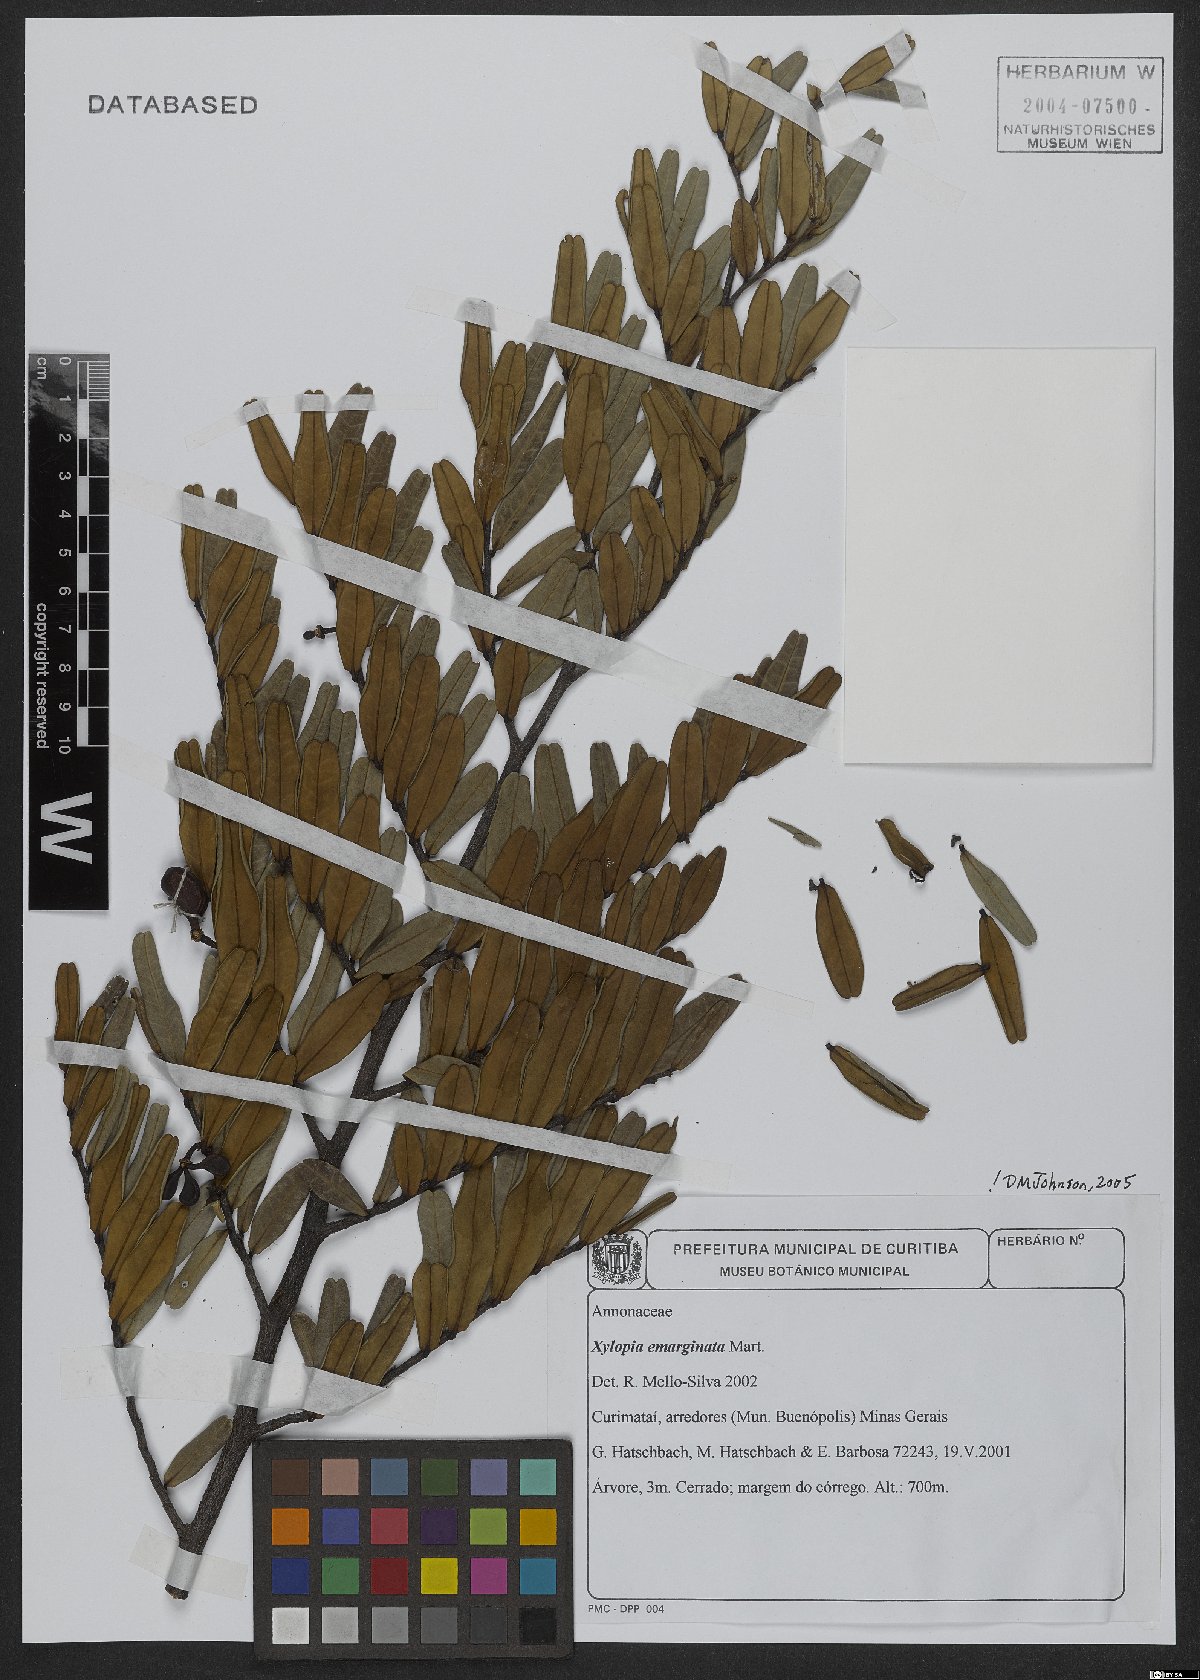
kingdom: Plantae
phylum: Tracheophyta
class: Magnoliopsida
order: Magnoliales
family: Annonaceae
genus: Xylopia
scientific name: Xylopia emarginata
